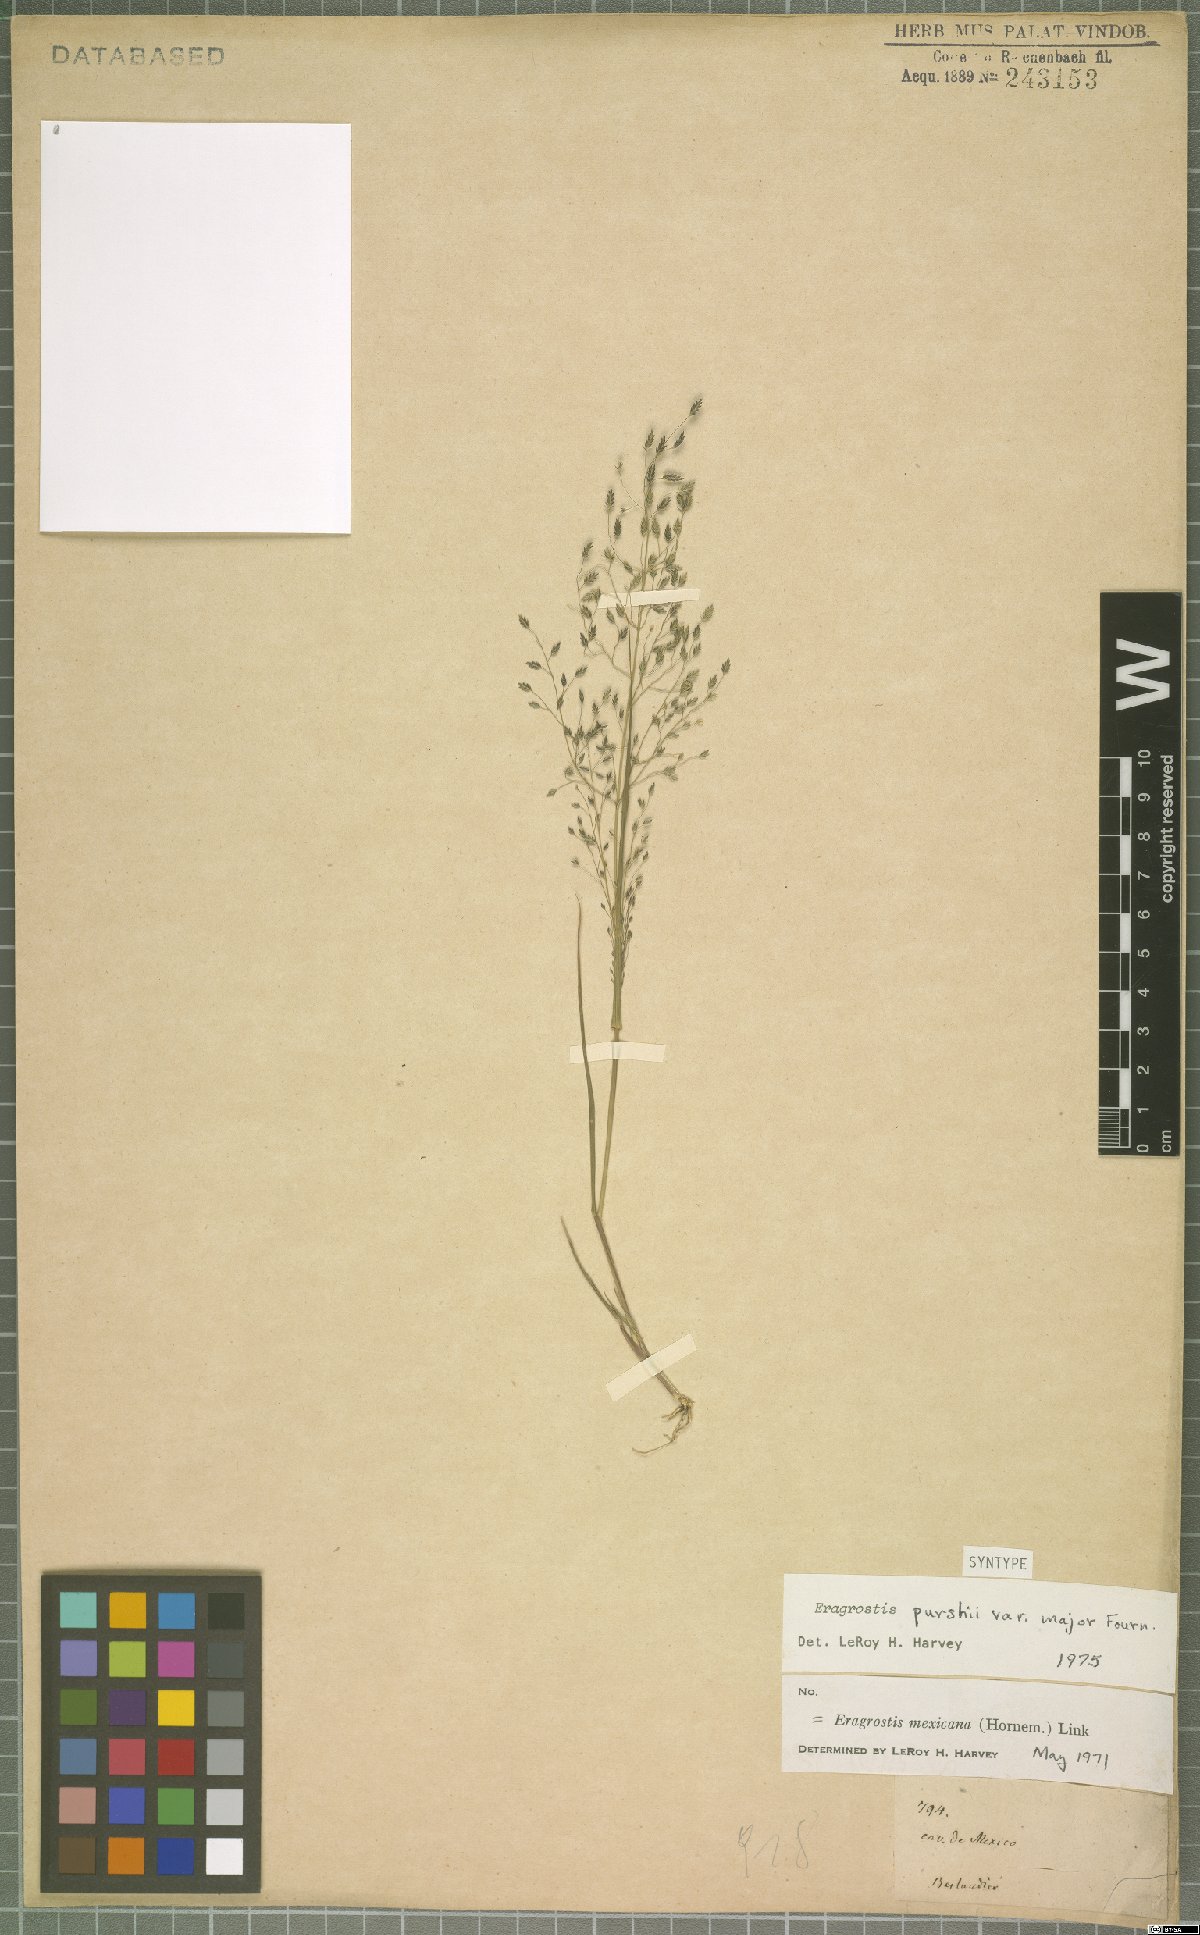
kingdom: Plantae
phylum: Tracheophyta
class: Liliopsida
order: Poales
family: Poaceae
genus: Eragrostis
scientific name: Eragrostis mexicana
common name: Mexican love grass
